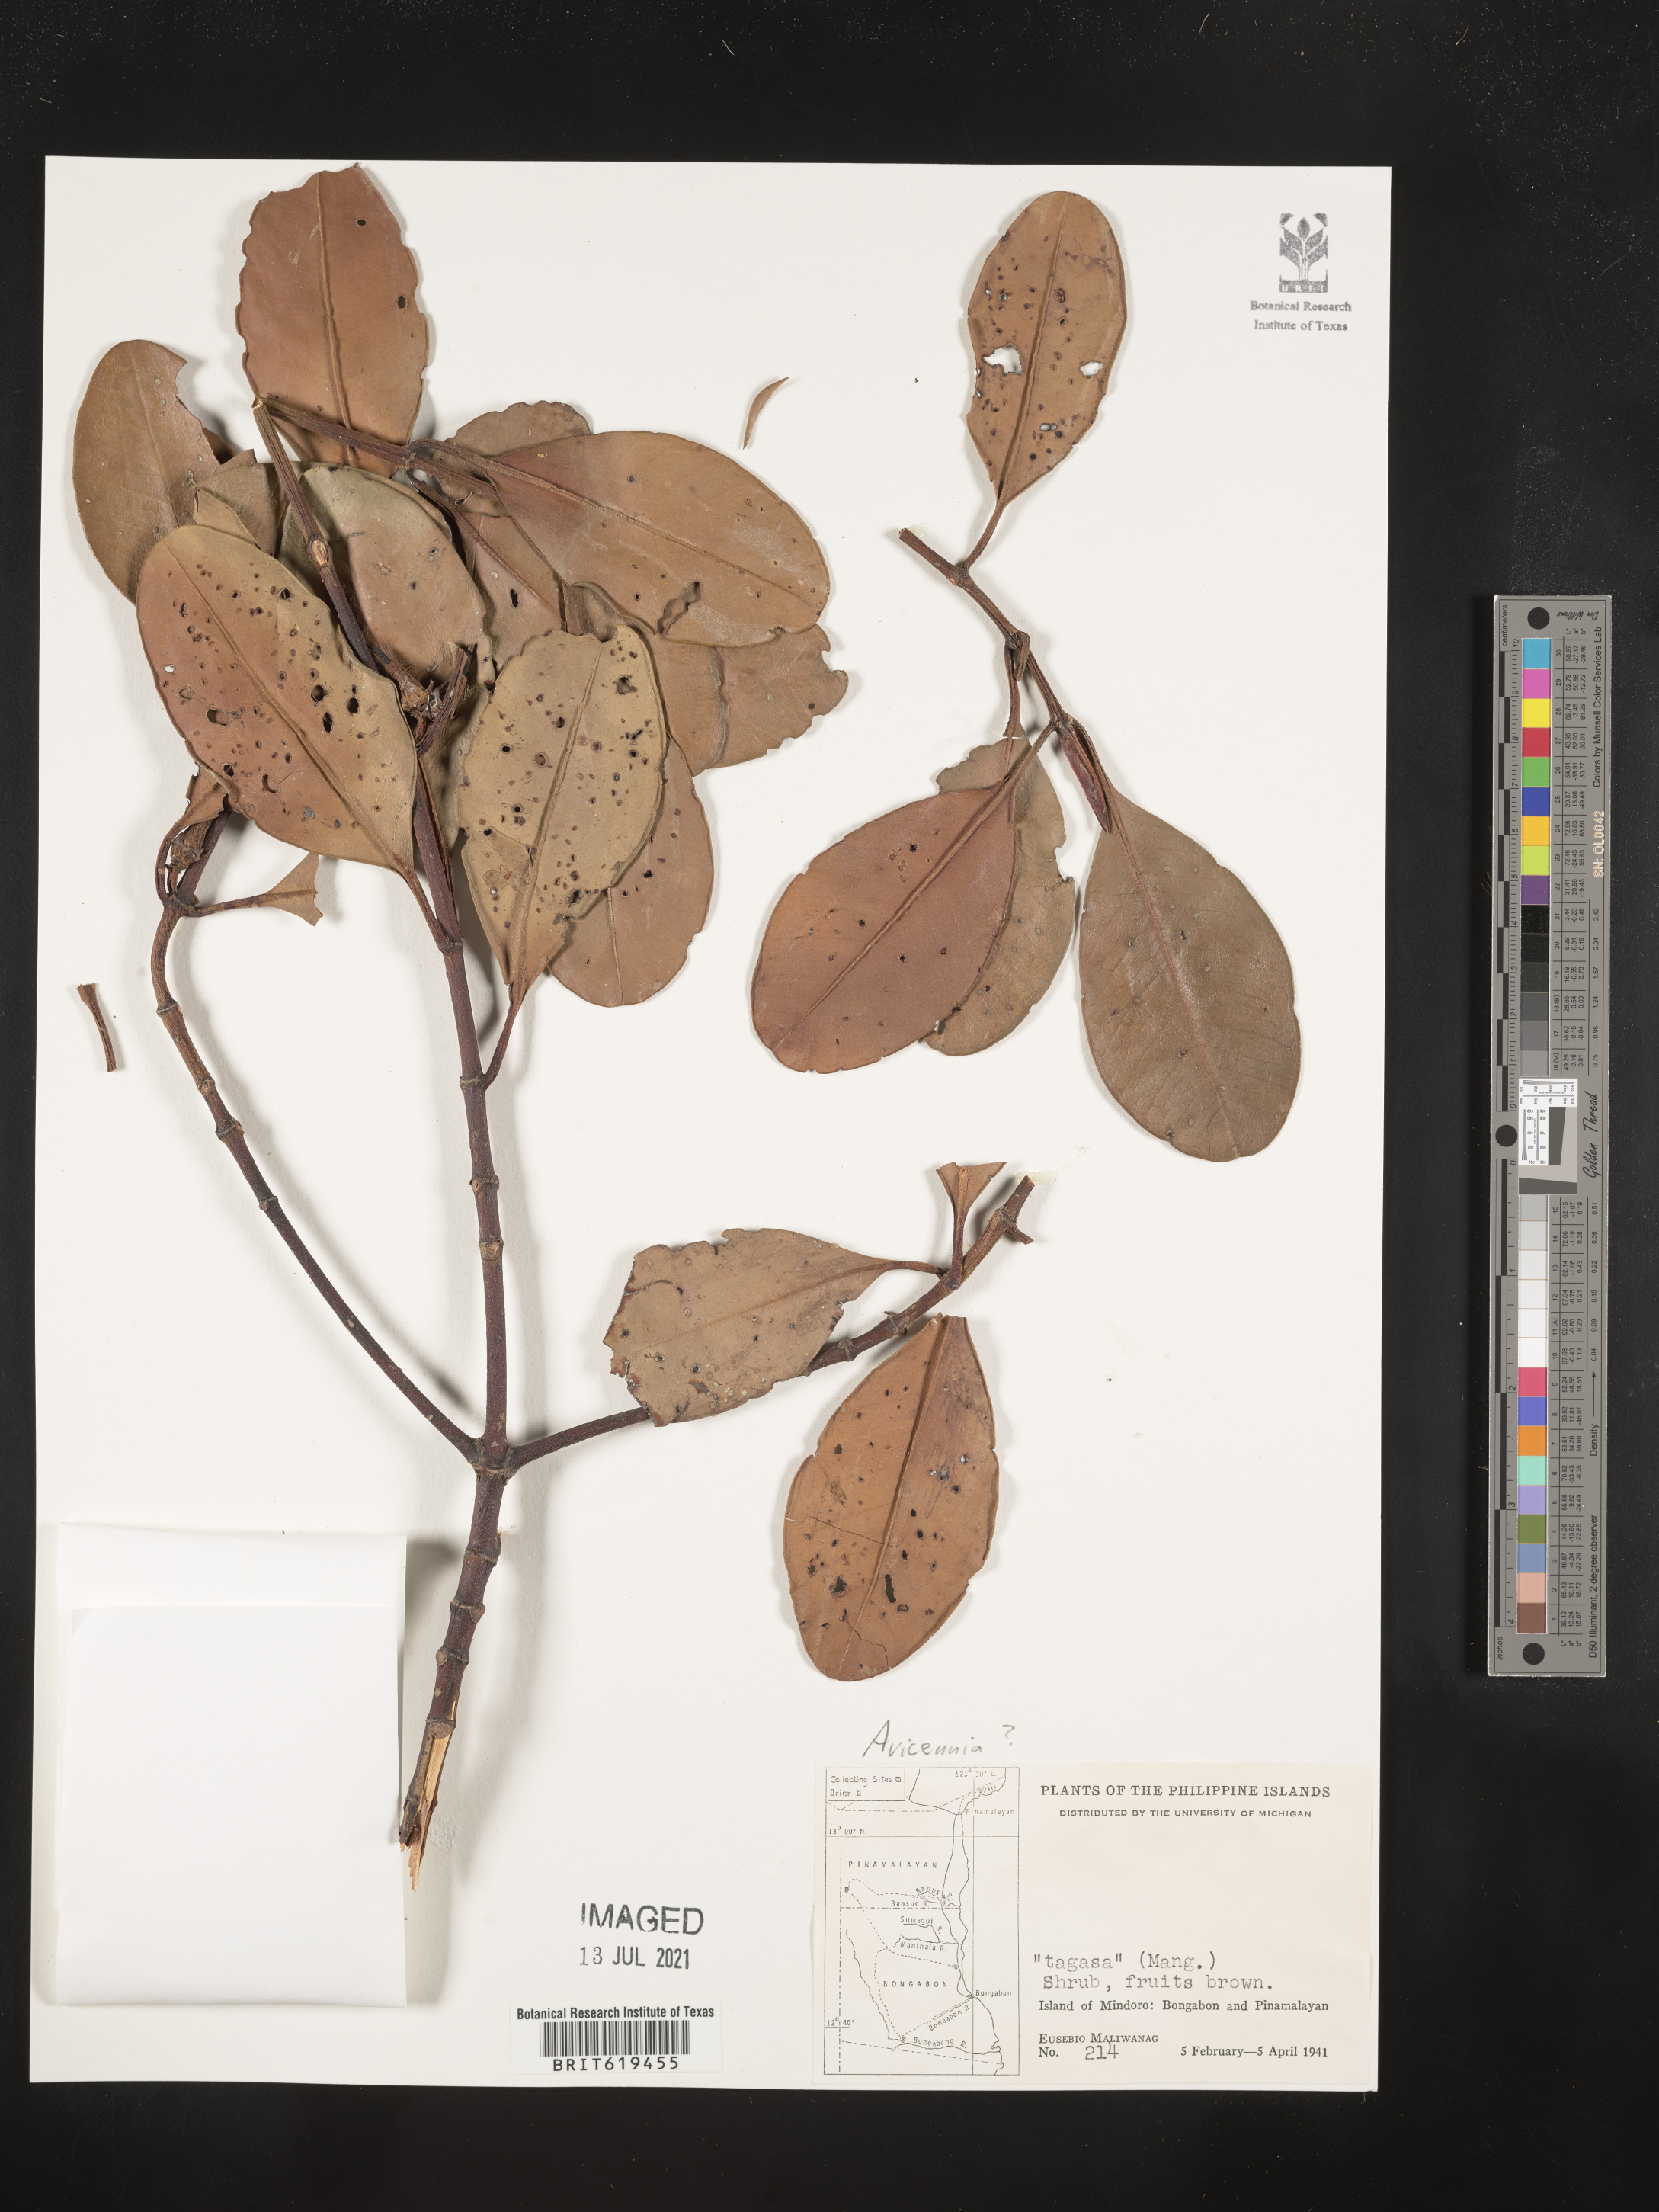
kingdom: Plantae
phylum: Tracheophyta
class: Magnoliopsida
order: Lamiales
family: Acanthaceae
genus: Avicennia
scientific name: Avicennia
